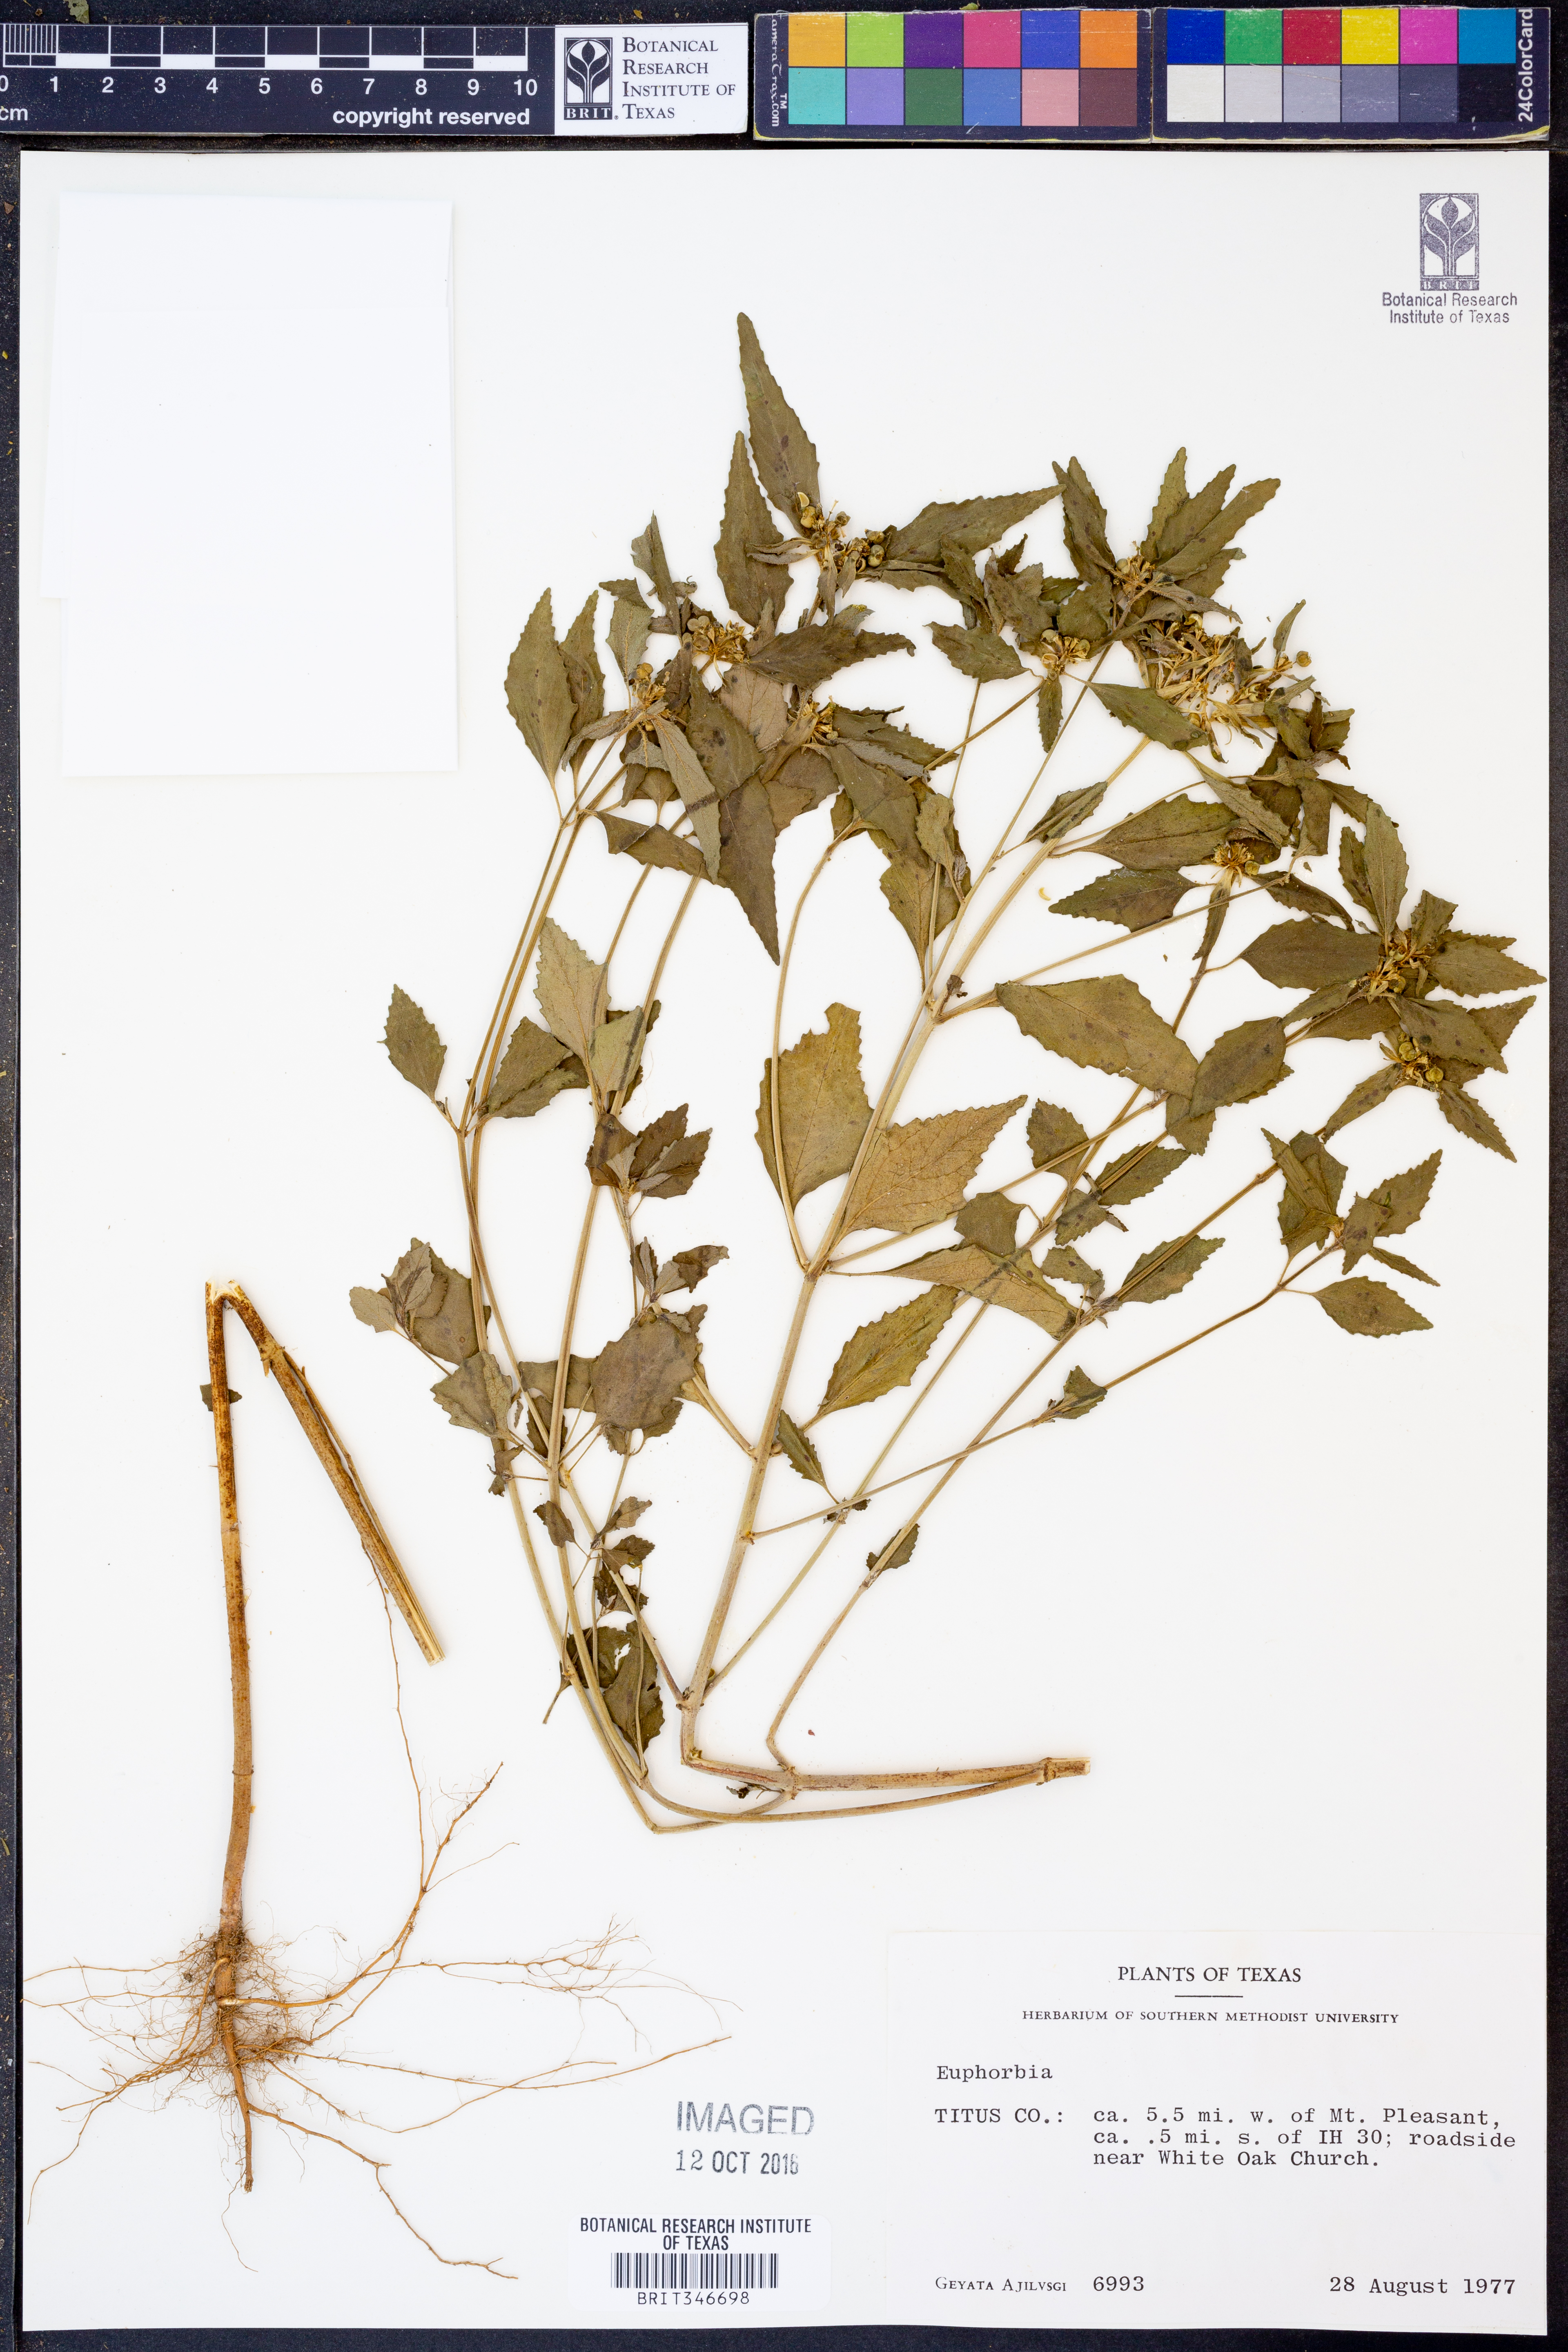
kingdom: Plantae
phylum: Tracheophyta
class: Magnoliopsida
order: Malpighiales
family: Euphorbiaceae
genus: Euphorbia
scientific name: Euphorbia
